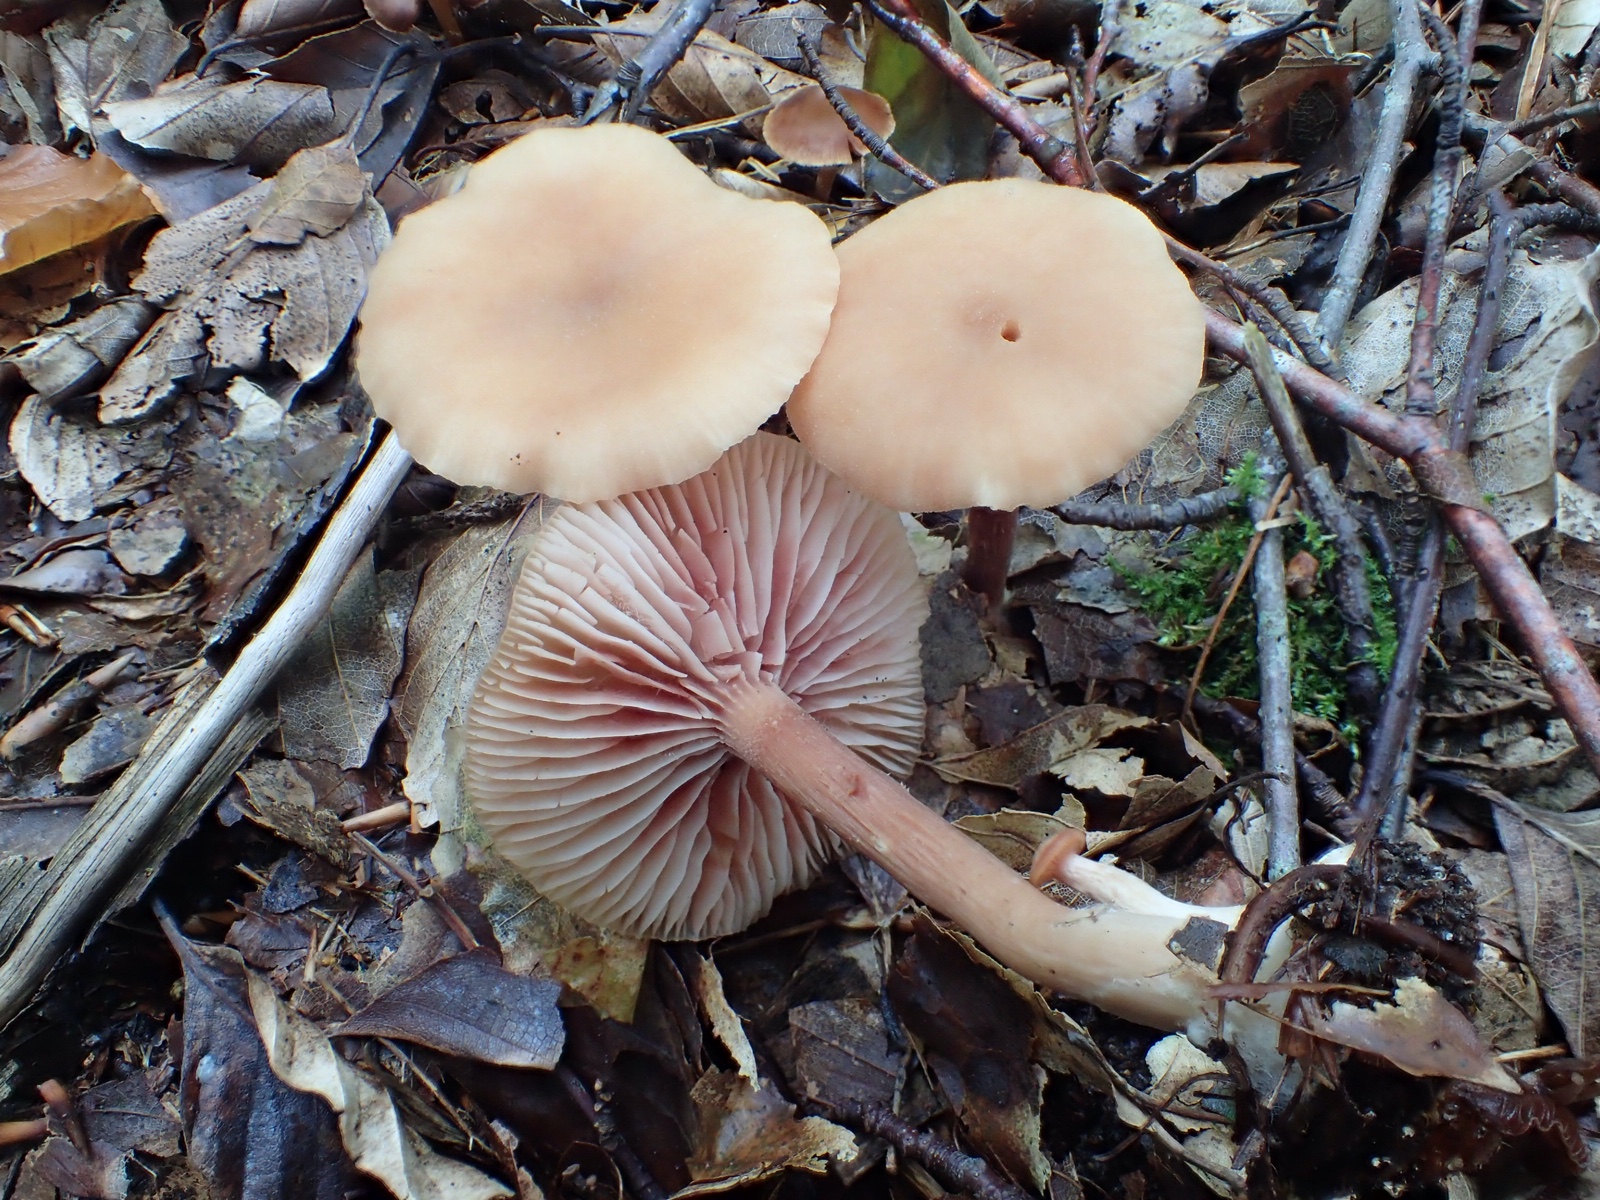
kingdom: Fungi
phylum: Basidiomycota
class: Agaricomycetes
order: Agaricales
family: Hydnangiaceae
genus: Laccaria
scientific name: Laccaria
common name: ametysthat
